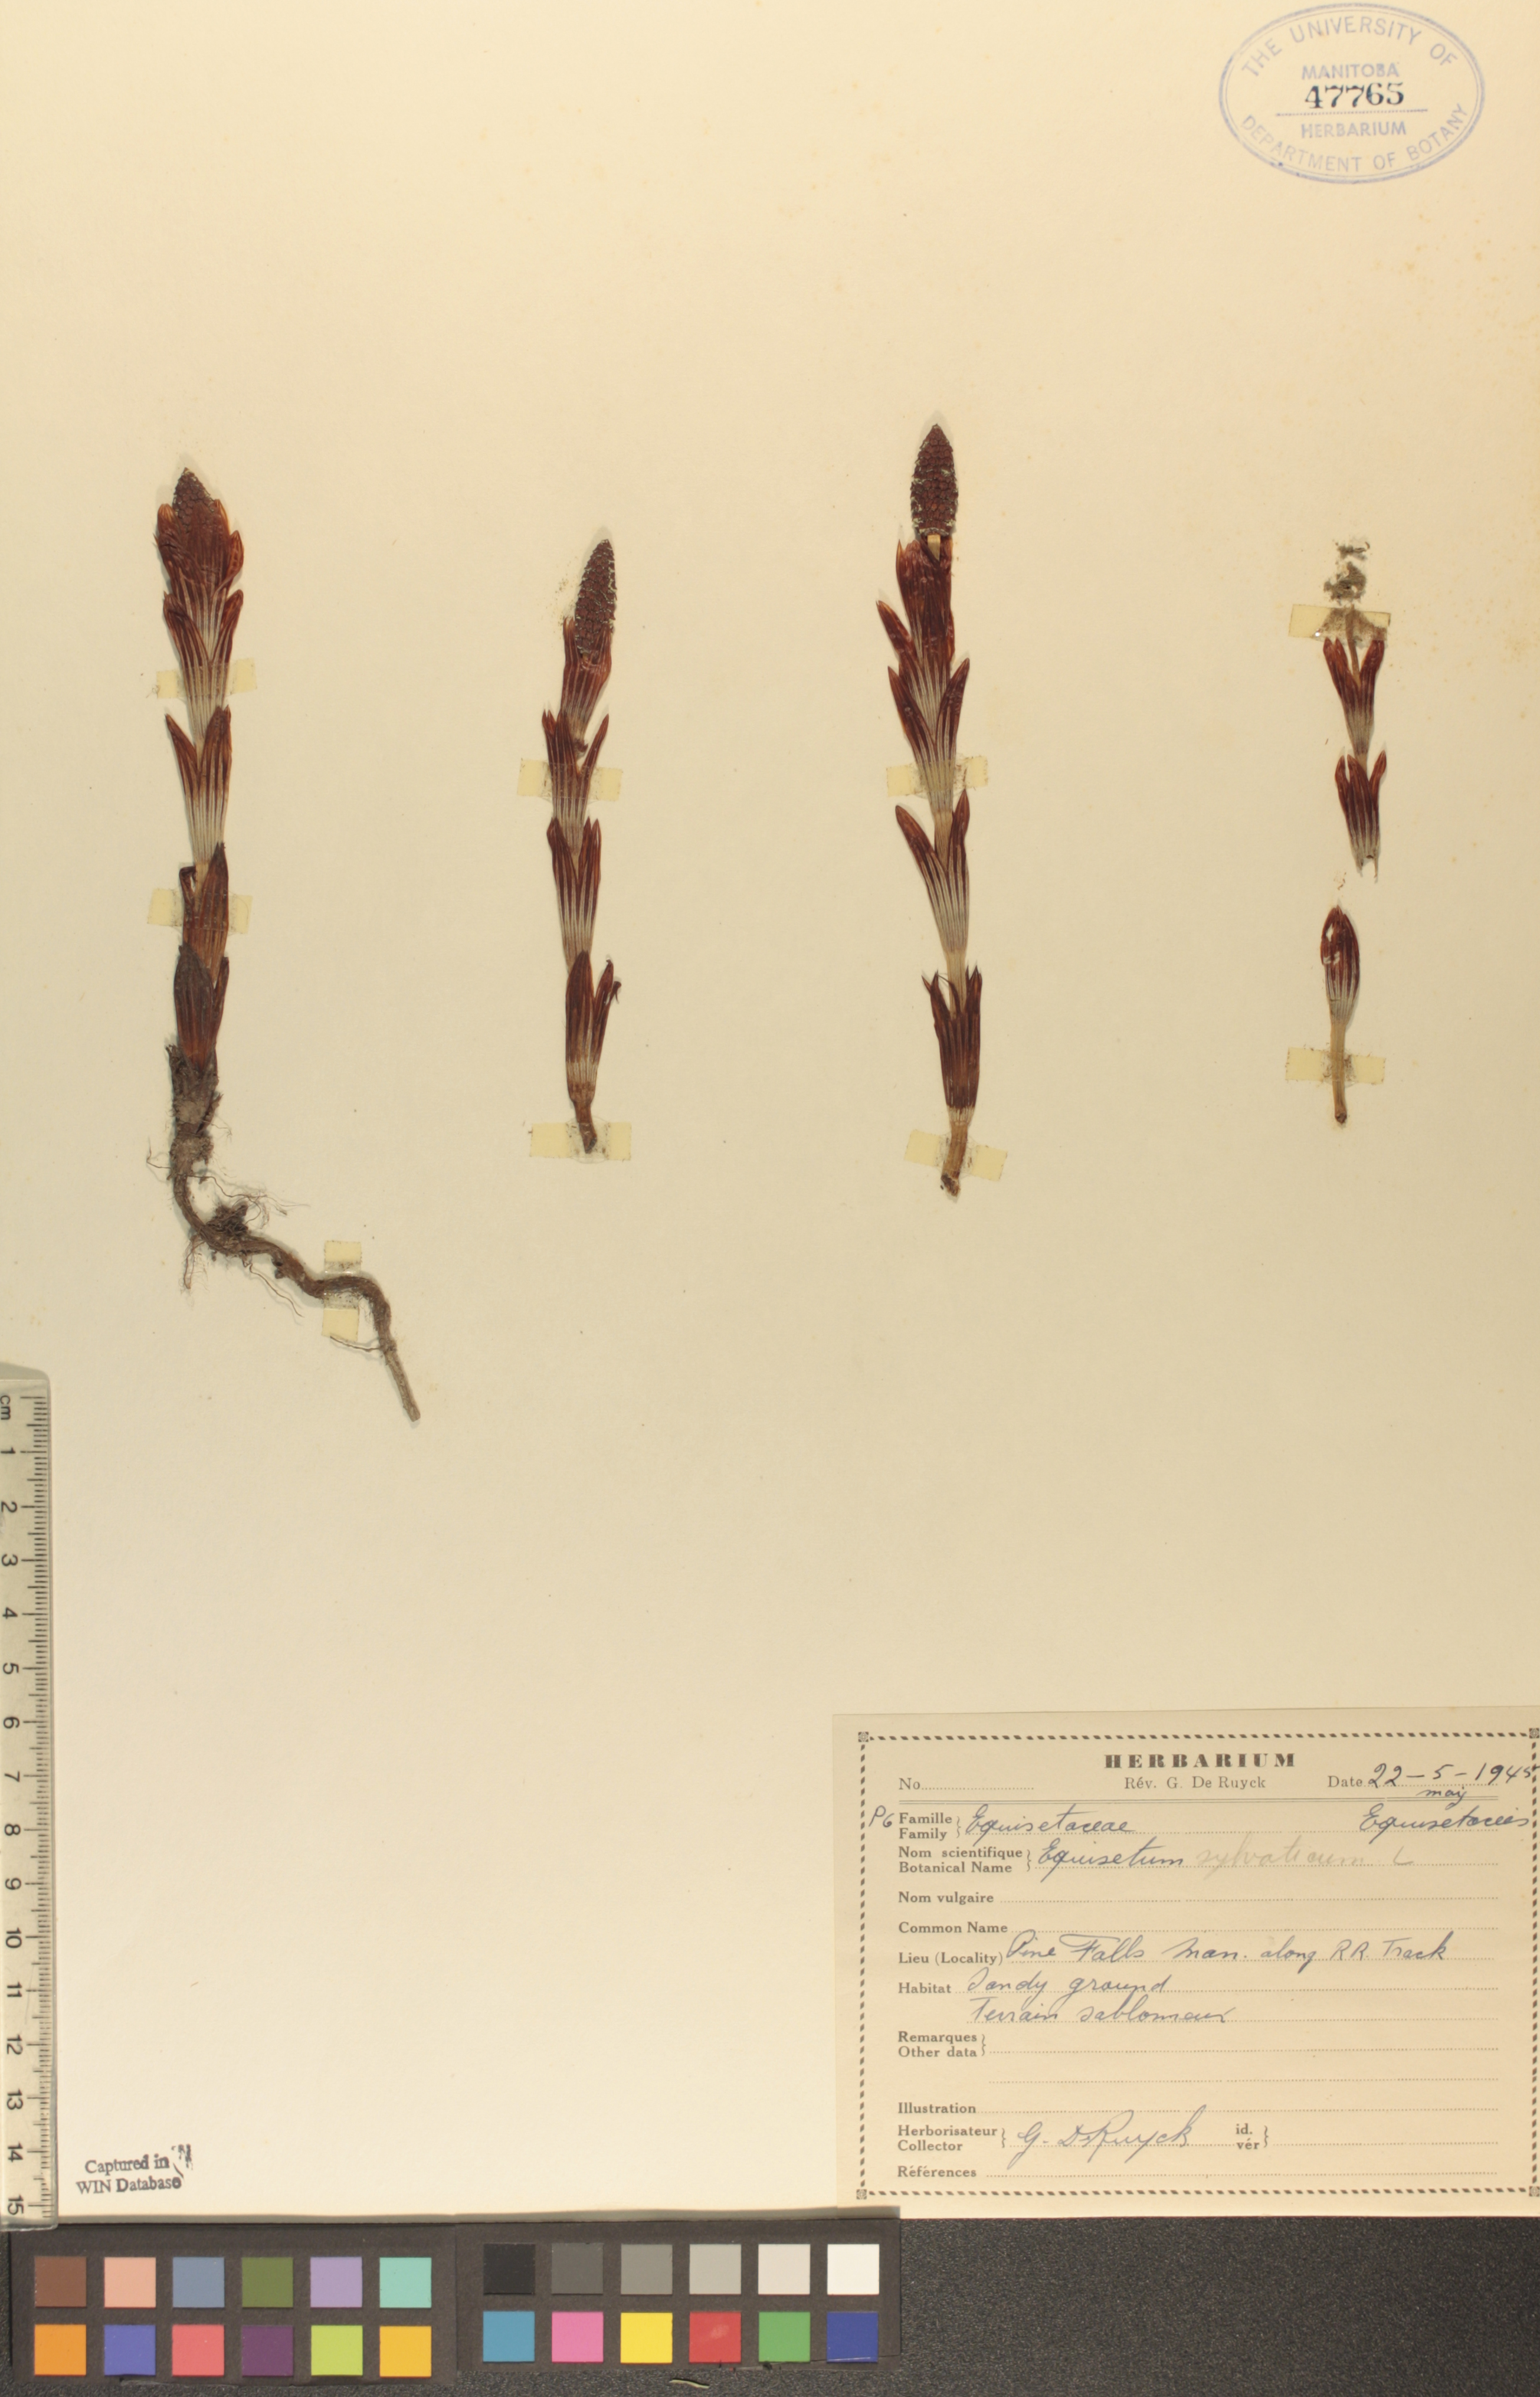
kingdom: Plantae
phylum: Tracheophyta
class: Polypodiopsida
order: Equisetales
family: Equisetaceae
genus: Equisetum
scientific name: Equisetum sylvaticum
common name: Wood horsetail
